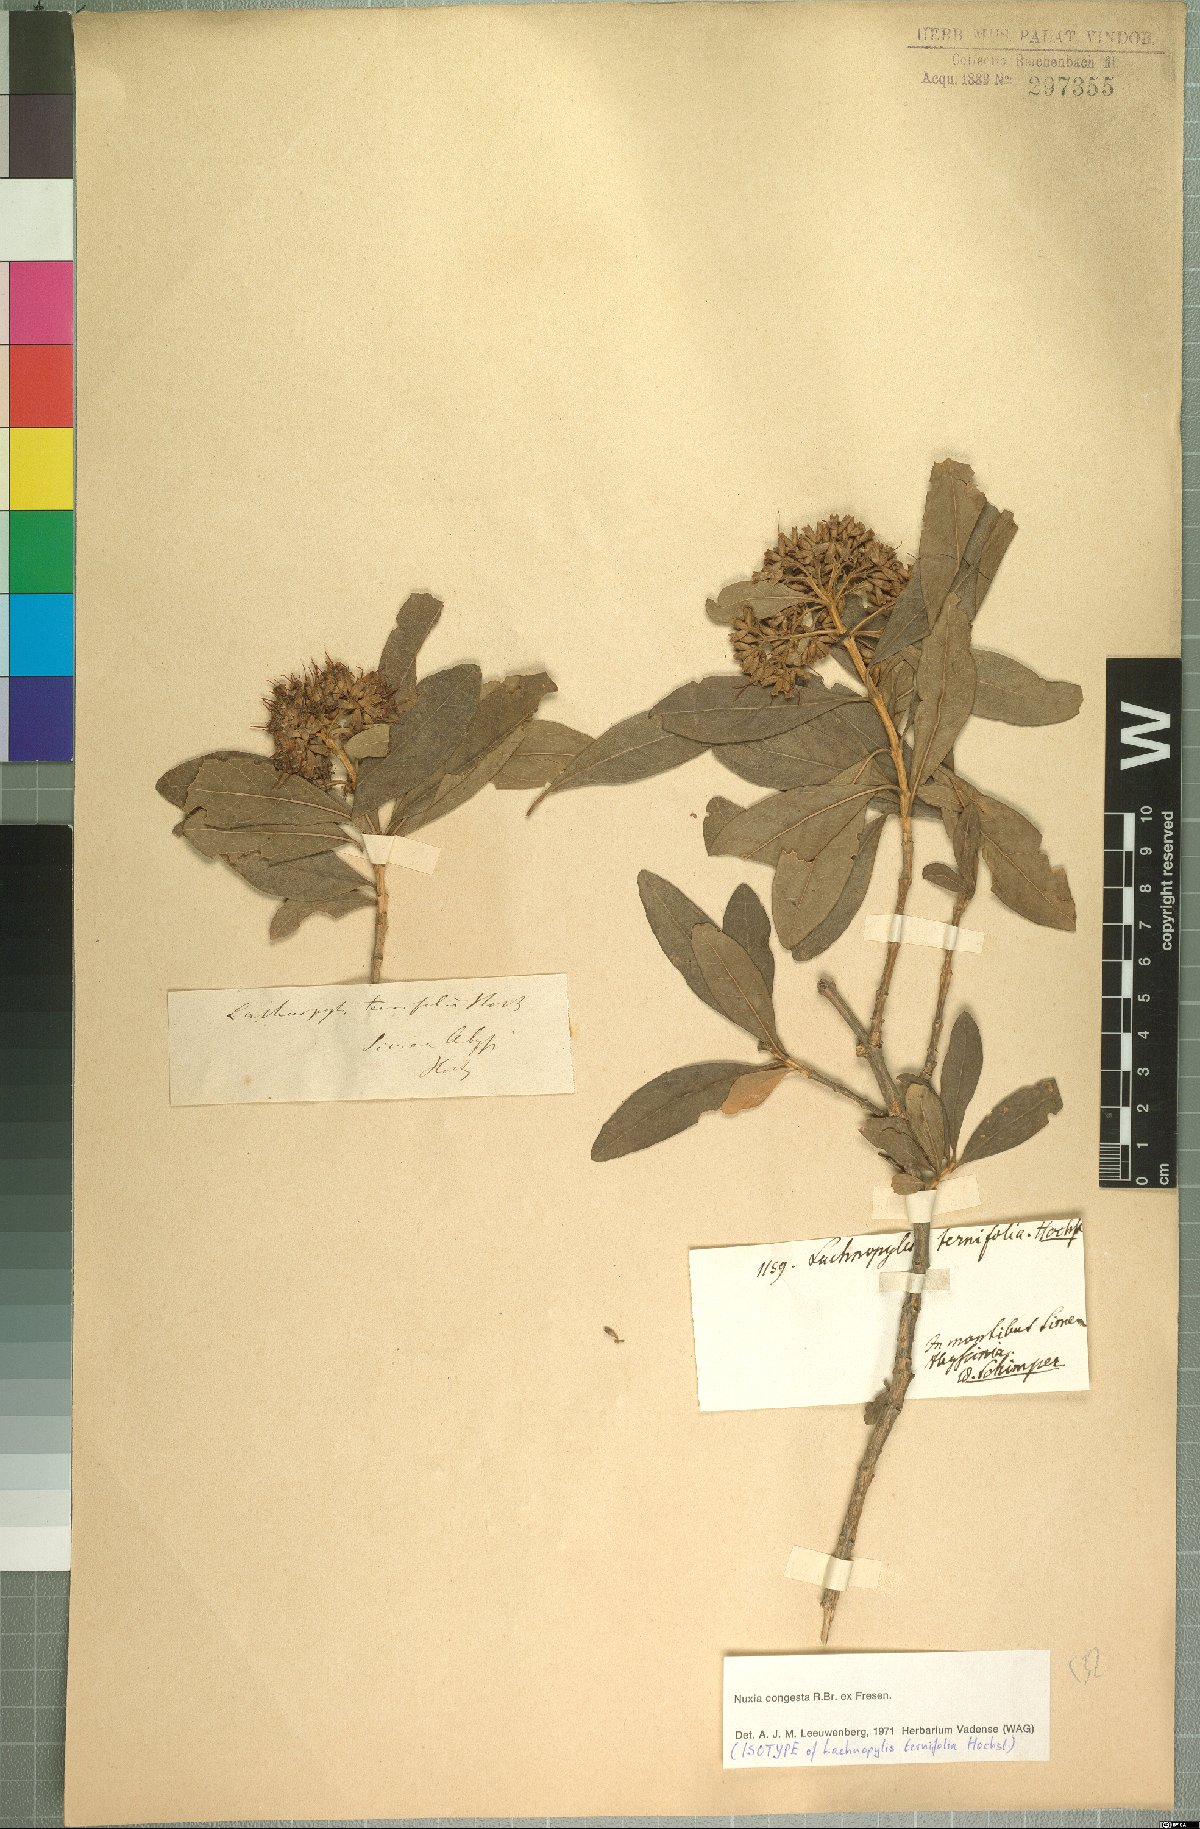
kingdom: Plantae
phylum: Tracheophyta
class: Magnoliopsida
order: Lamiales
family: Stilbaceae
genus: Nuxia
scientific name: Nuxia congesta
